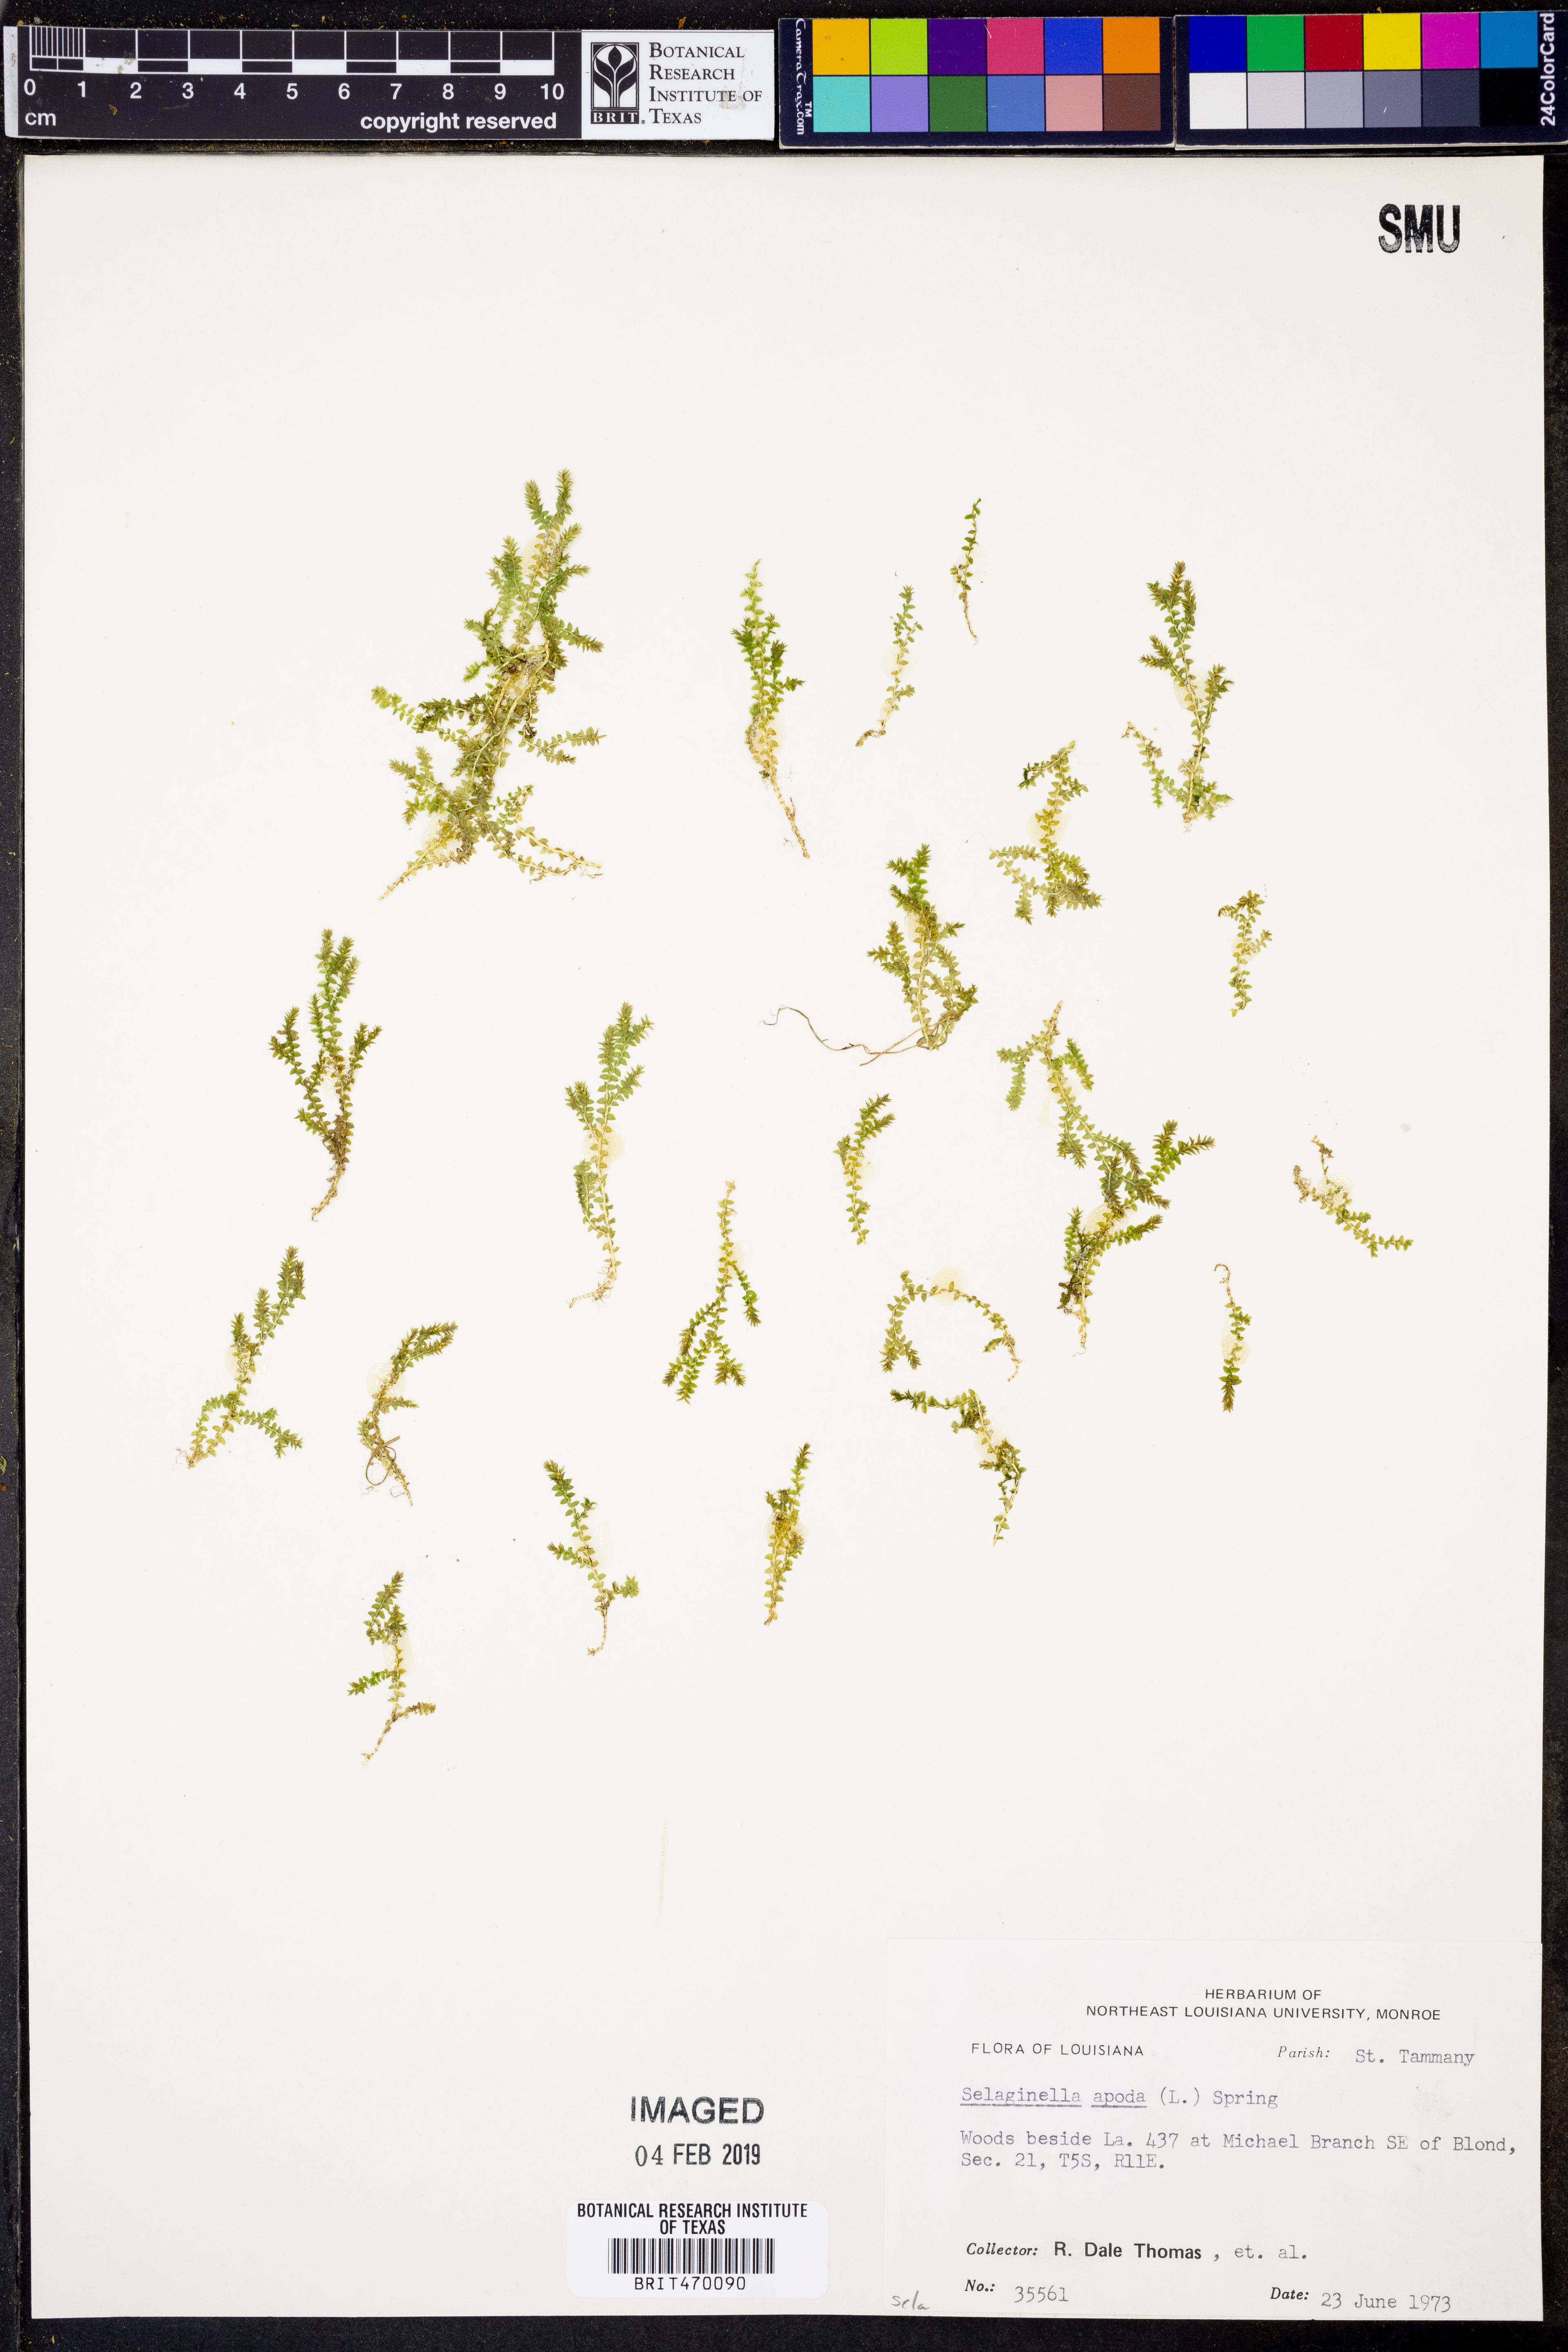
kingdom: Plantae
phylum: Tracheophyta
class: Lycopodiopsida
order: Selaginellales
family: Selaginellaceae
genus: Selaginella
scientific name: Selaginella apoda
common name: Creeping spikemoss
